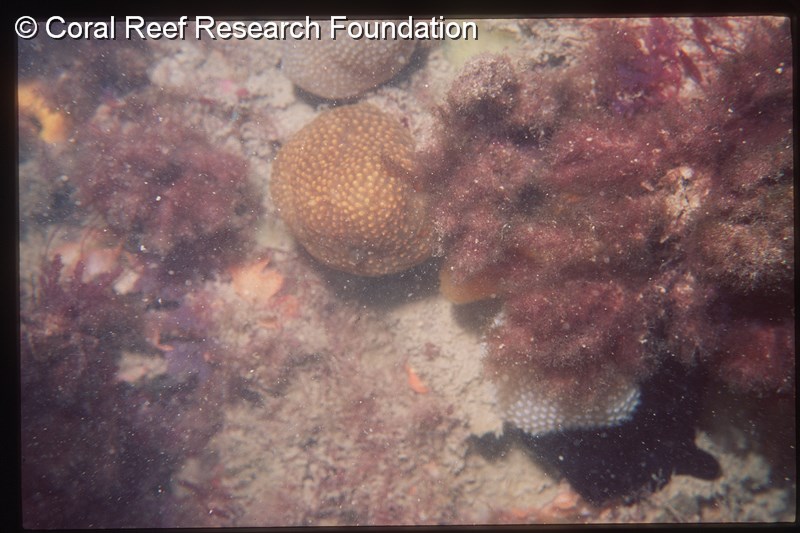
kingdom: Animalia
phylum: Chordata
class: Ascidiacea
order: Aplousobranchia
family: Pseudodistomidae
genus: Pseudodistoma
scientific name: Pseudodistoma
